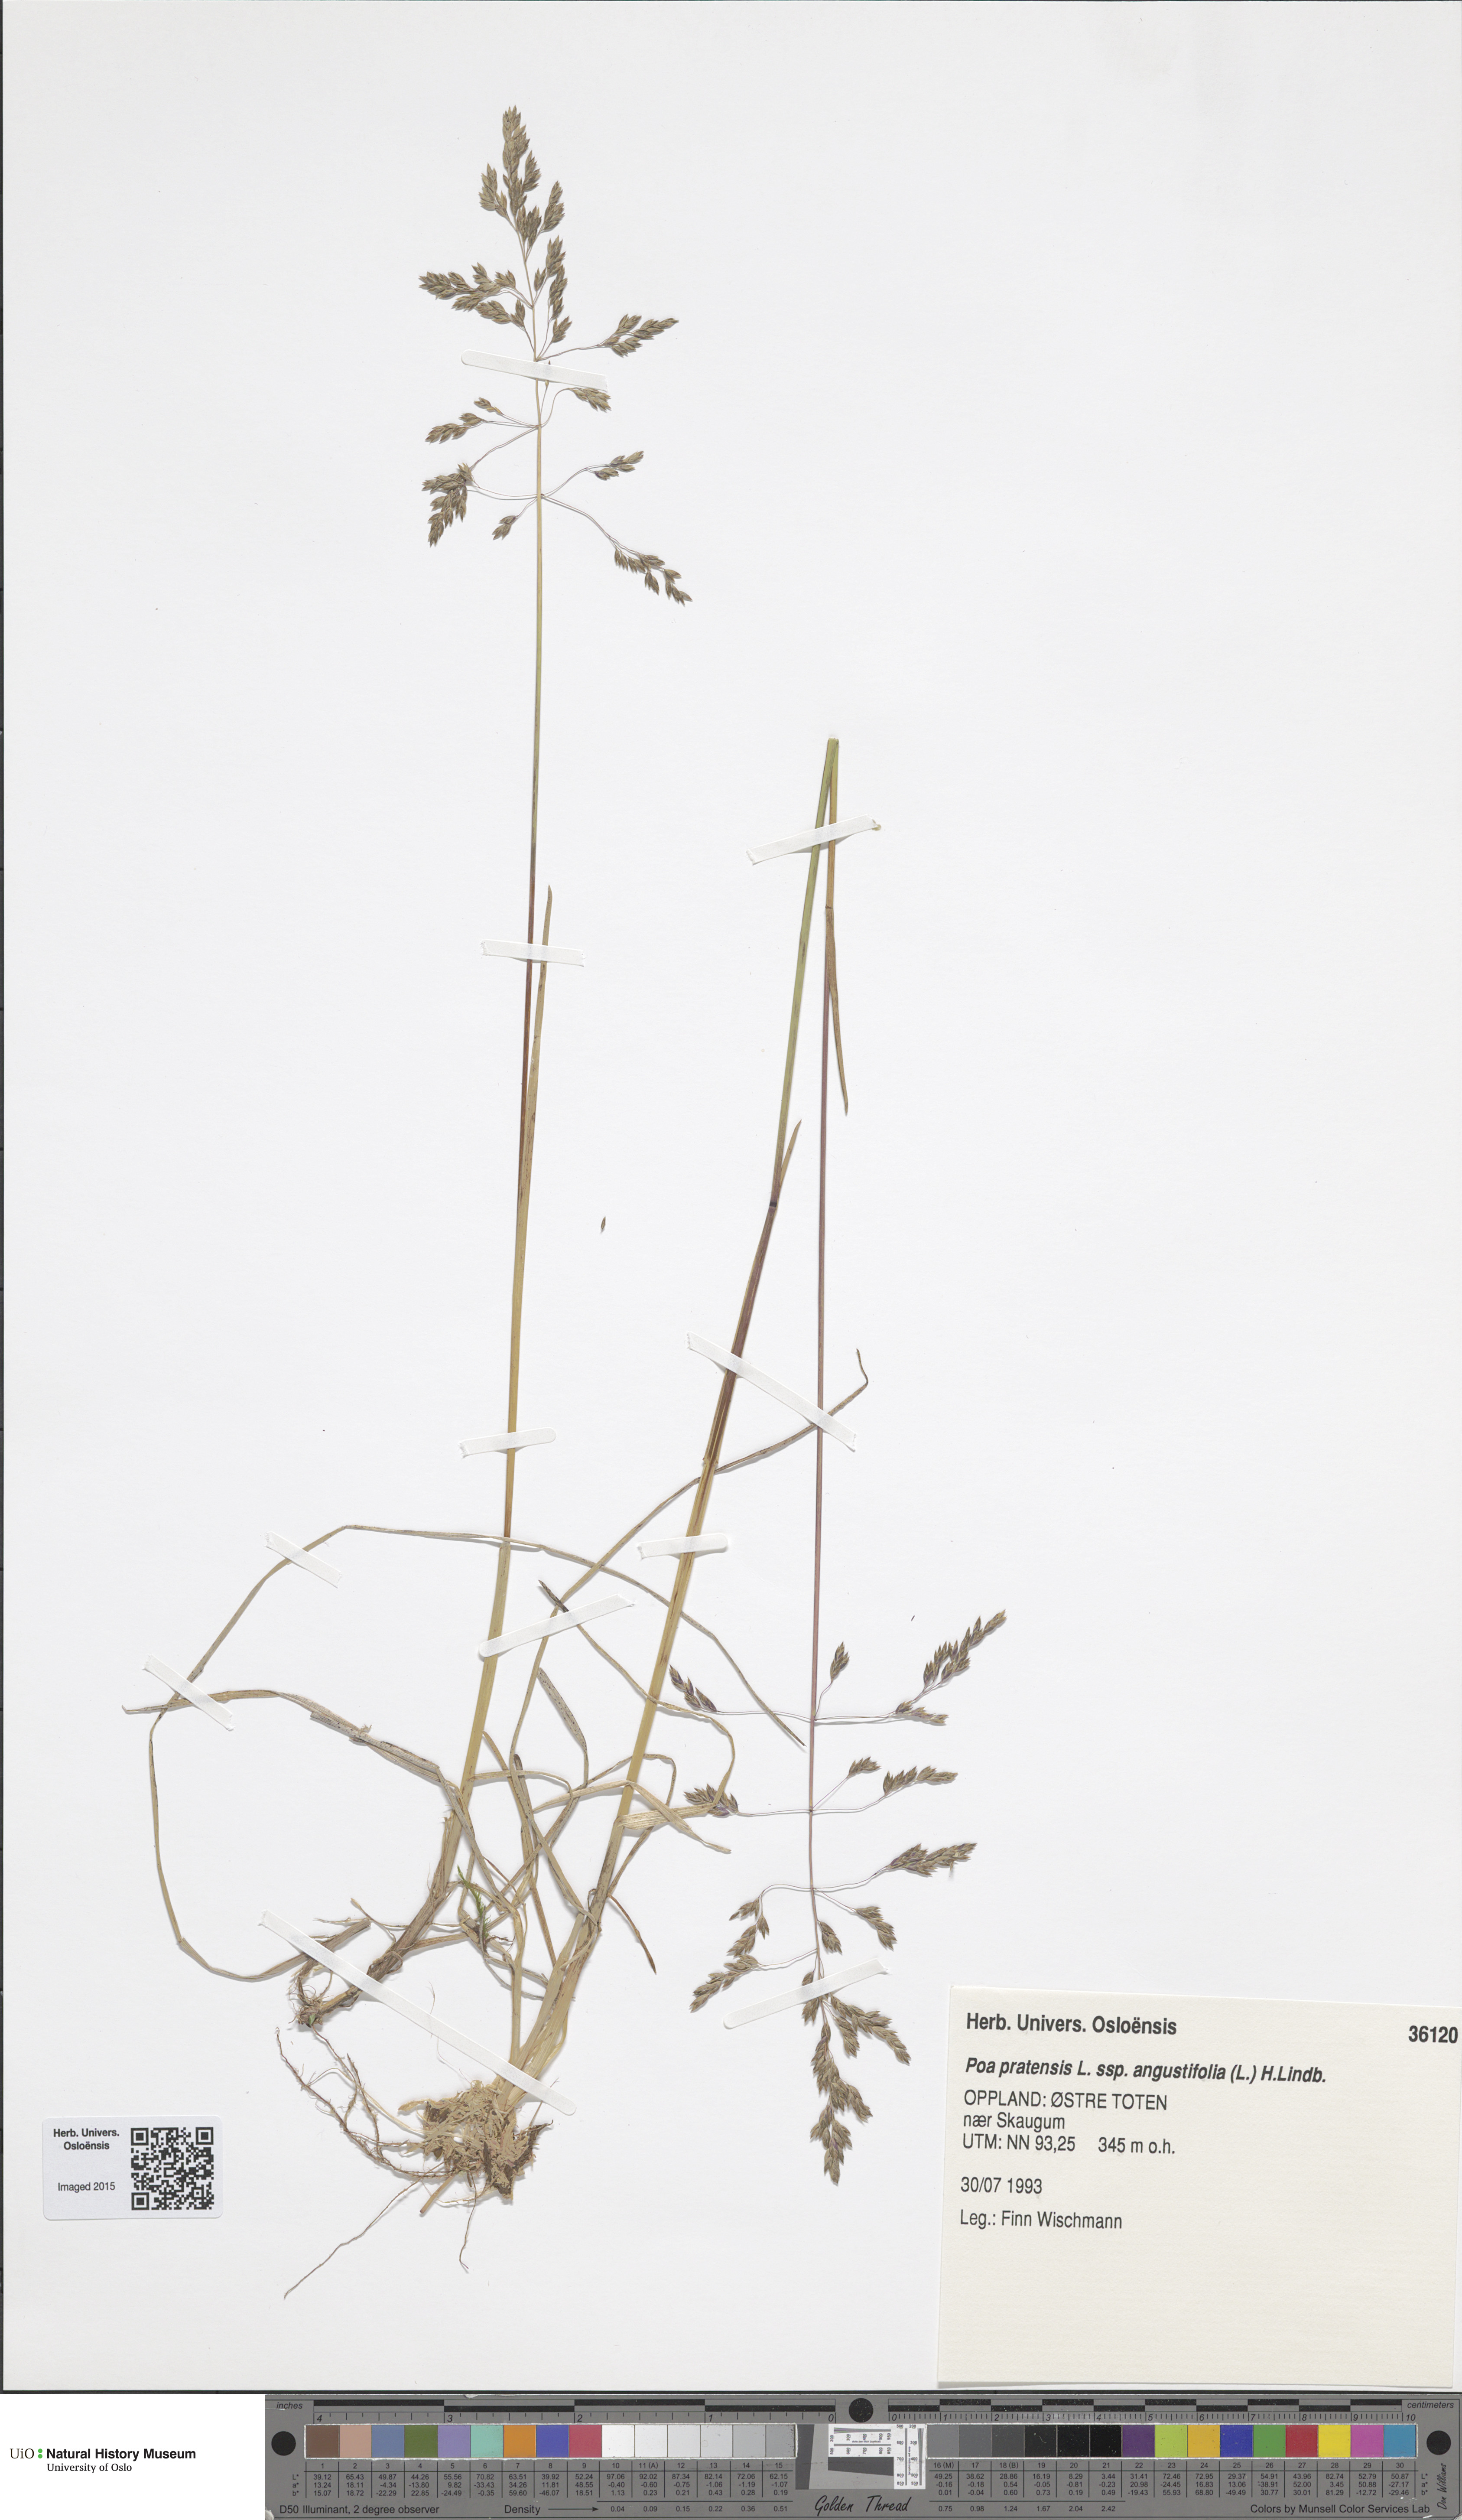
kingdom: Plantae
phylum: Tracheophyta
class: Liliopsida
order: Poales
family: Poaceae
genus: Poa
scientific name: Poa angustifolia
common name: Narrow-leaved meadow-grass
